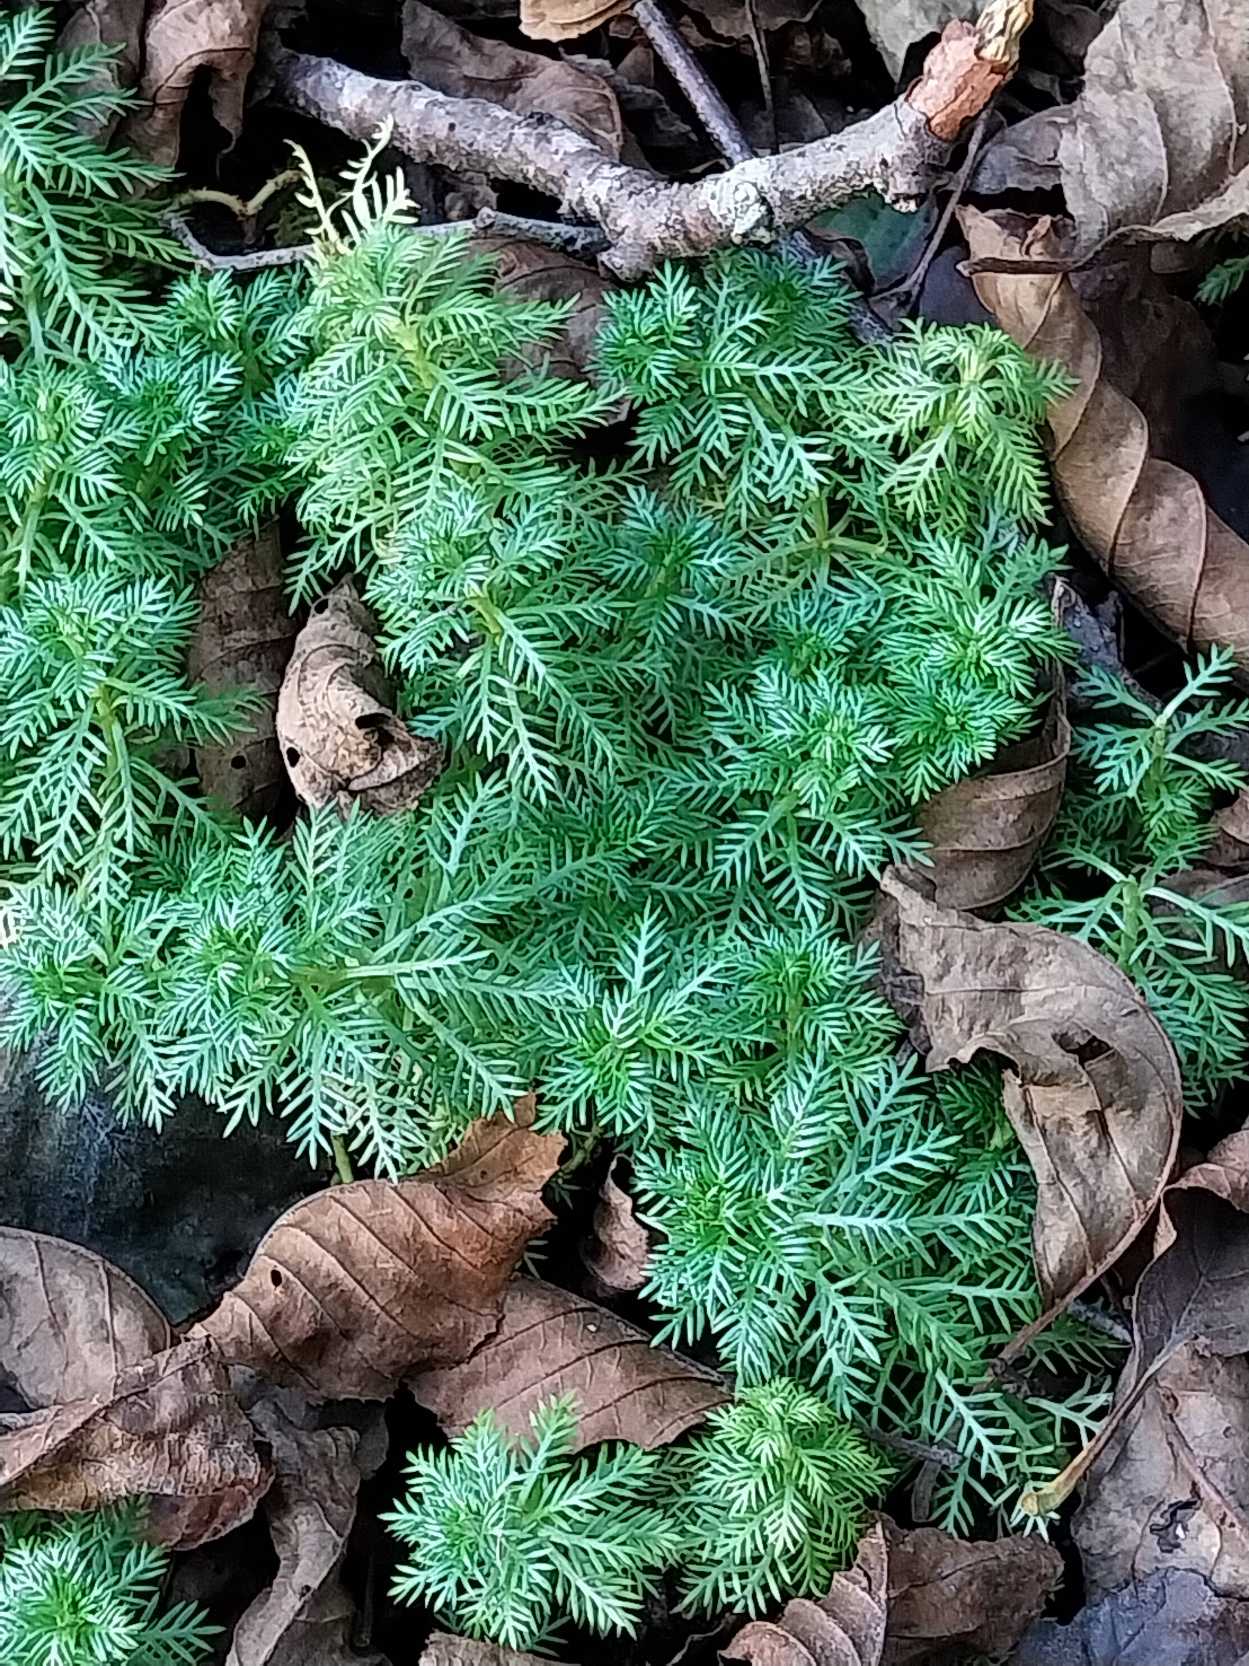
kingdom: Plantae
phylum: Tracheophyta
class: Magnoliopsida
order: Ericales
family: Primulaceae
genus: Hottonia
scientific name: Hottonia palustris
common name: Vandrøllike
